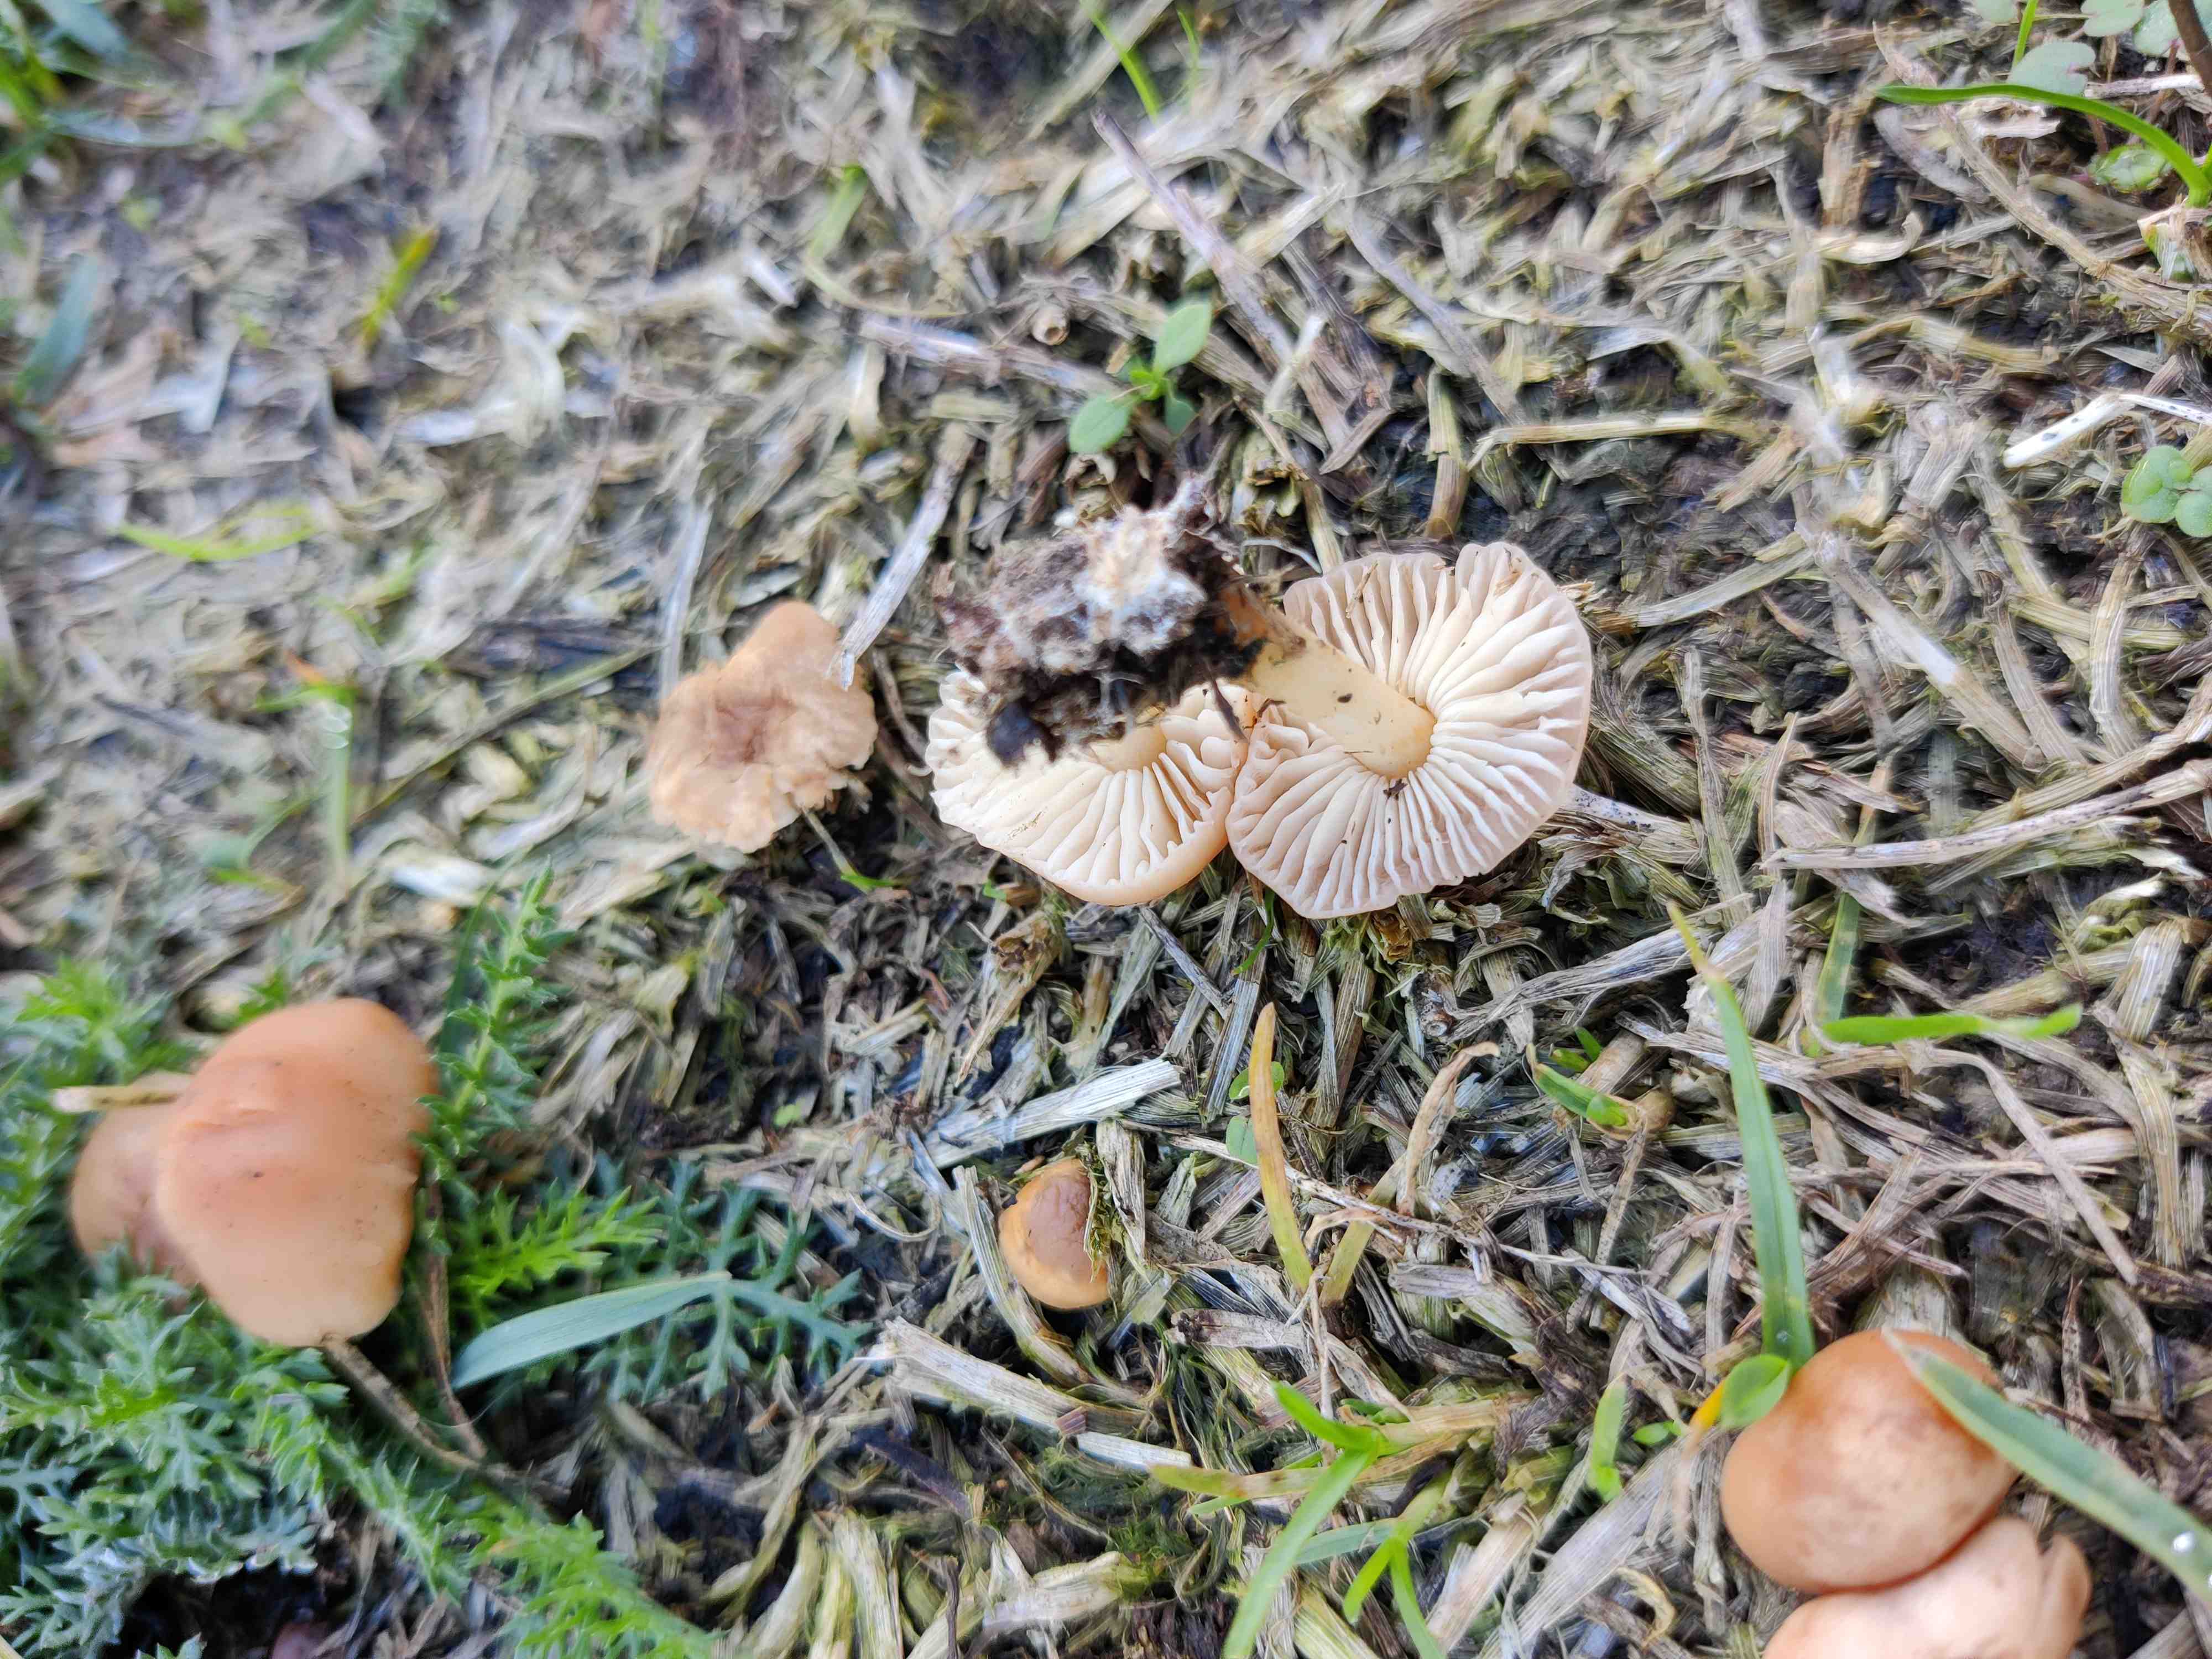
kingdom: Fungi
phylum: Basidiomycota
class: Agaricomycetes
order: Agaricales
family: Marasmiaceae
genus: Marasmius
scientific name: Marasmius oreades
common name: elledans-bruskhat
